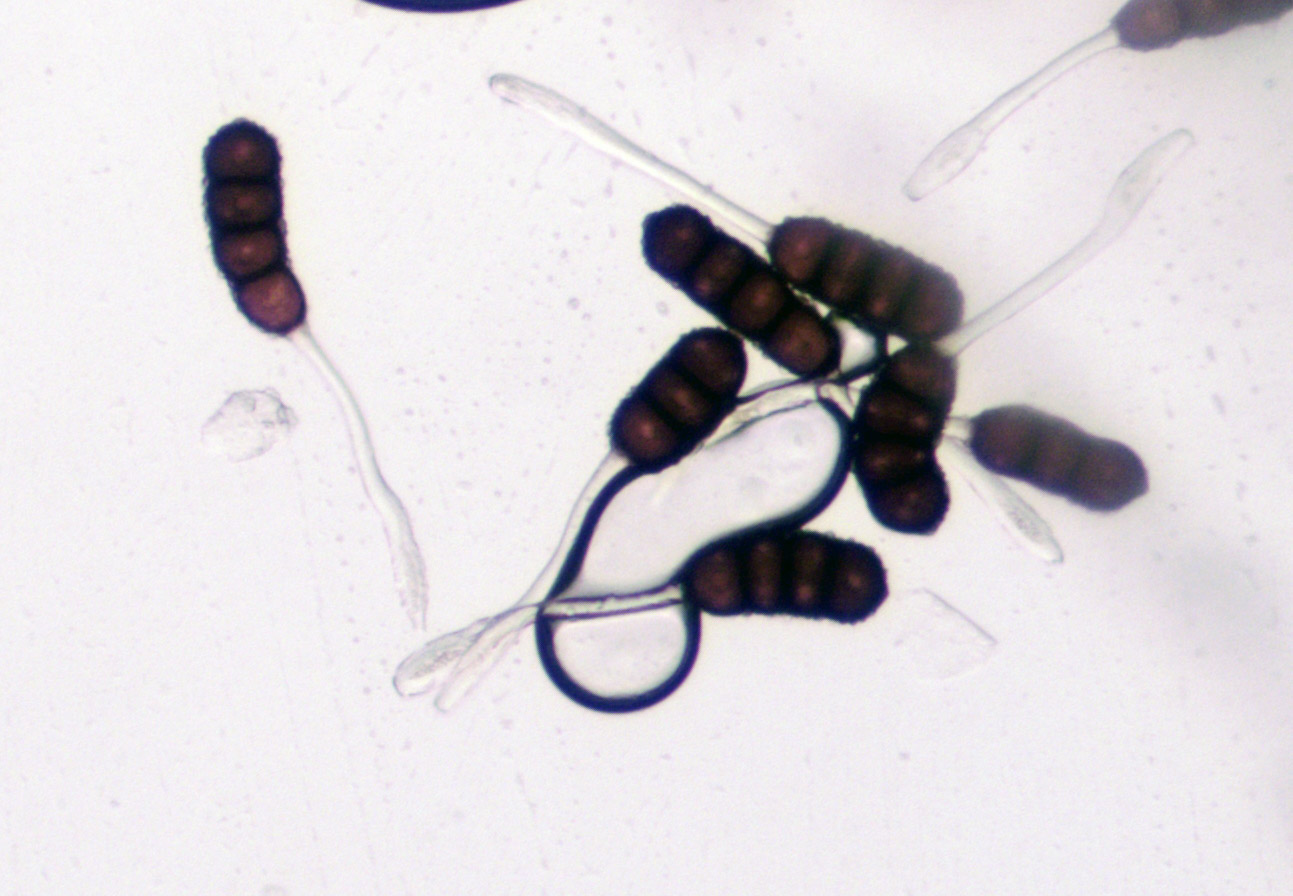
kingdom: Fungi
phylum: Basidiomycota
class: Pucciniomycetes
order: Pucciniales
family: Phragmidiaceae
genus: Phragmidium
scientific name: Phragmidium violaceum
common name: violet flercellerust
